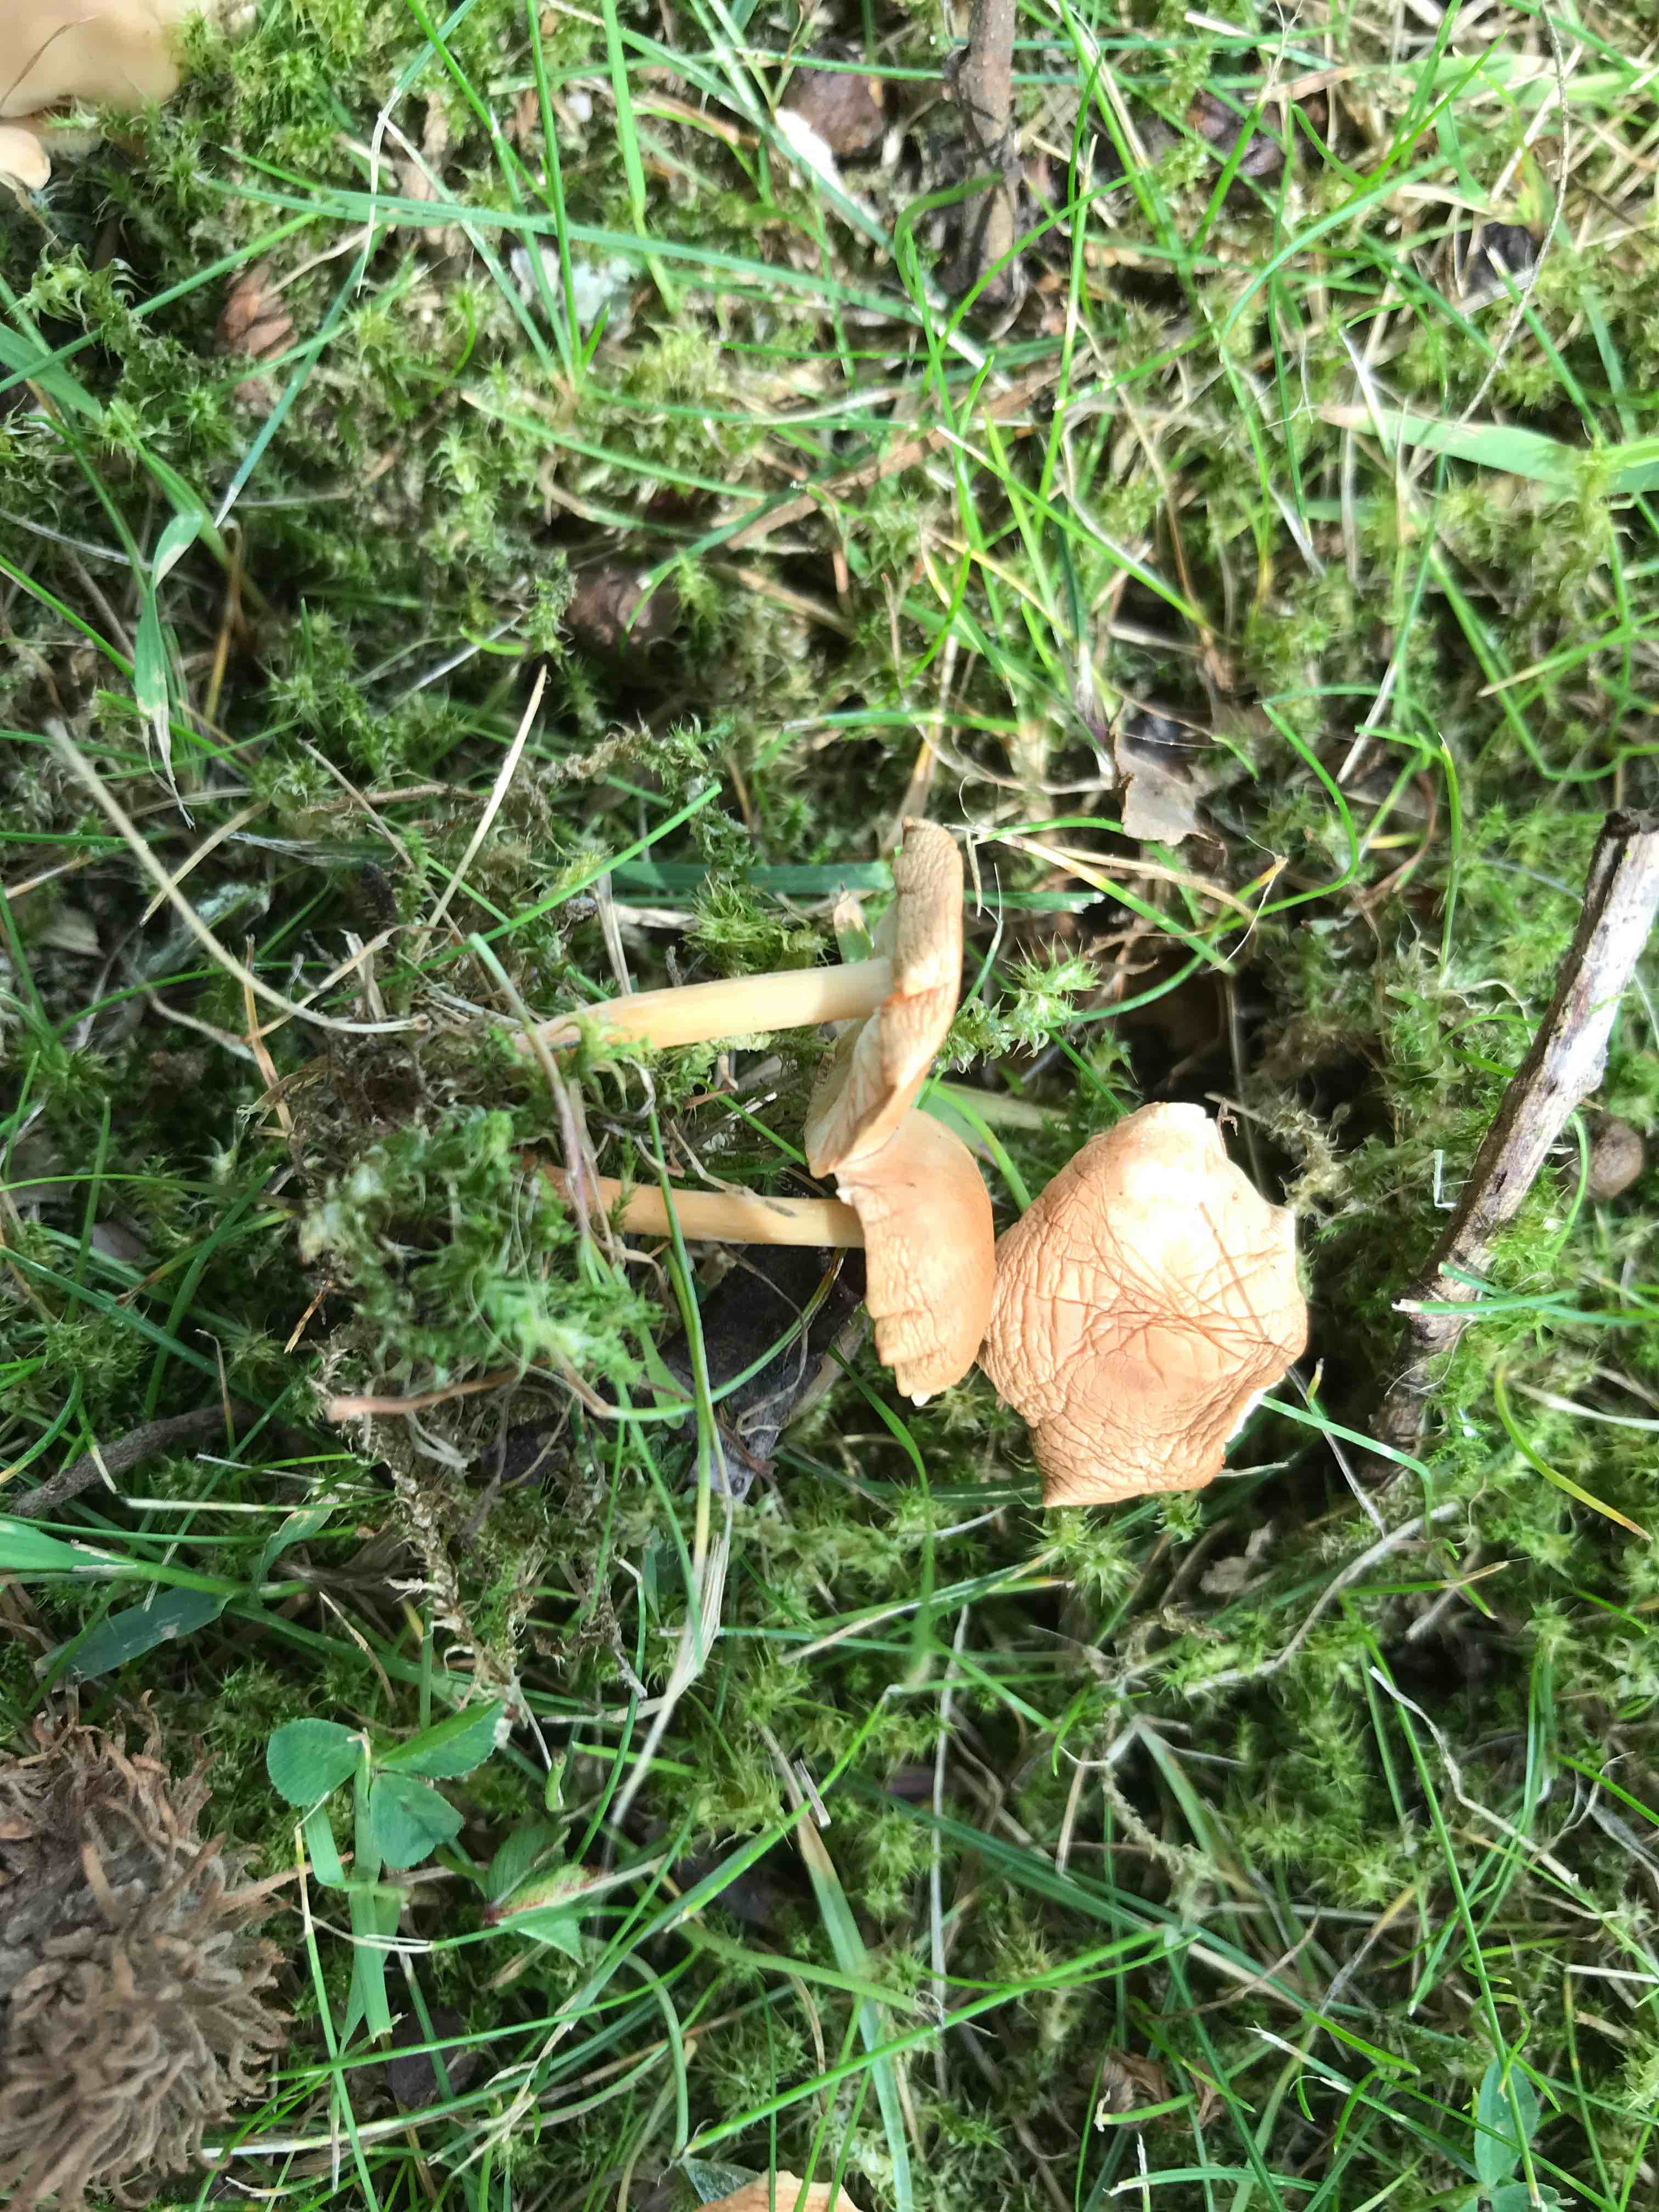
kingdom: Fungi
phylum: Basidiomycota
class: Agaricomycetes
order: Agaricales
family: Omphalotaceae
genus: Gymnopus
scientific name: Gymnopus
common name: fladhat
